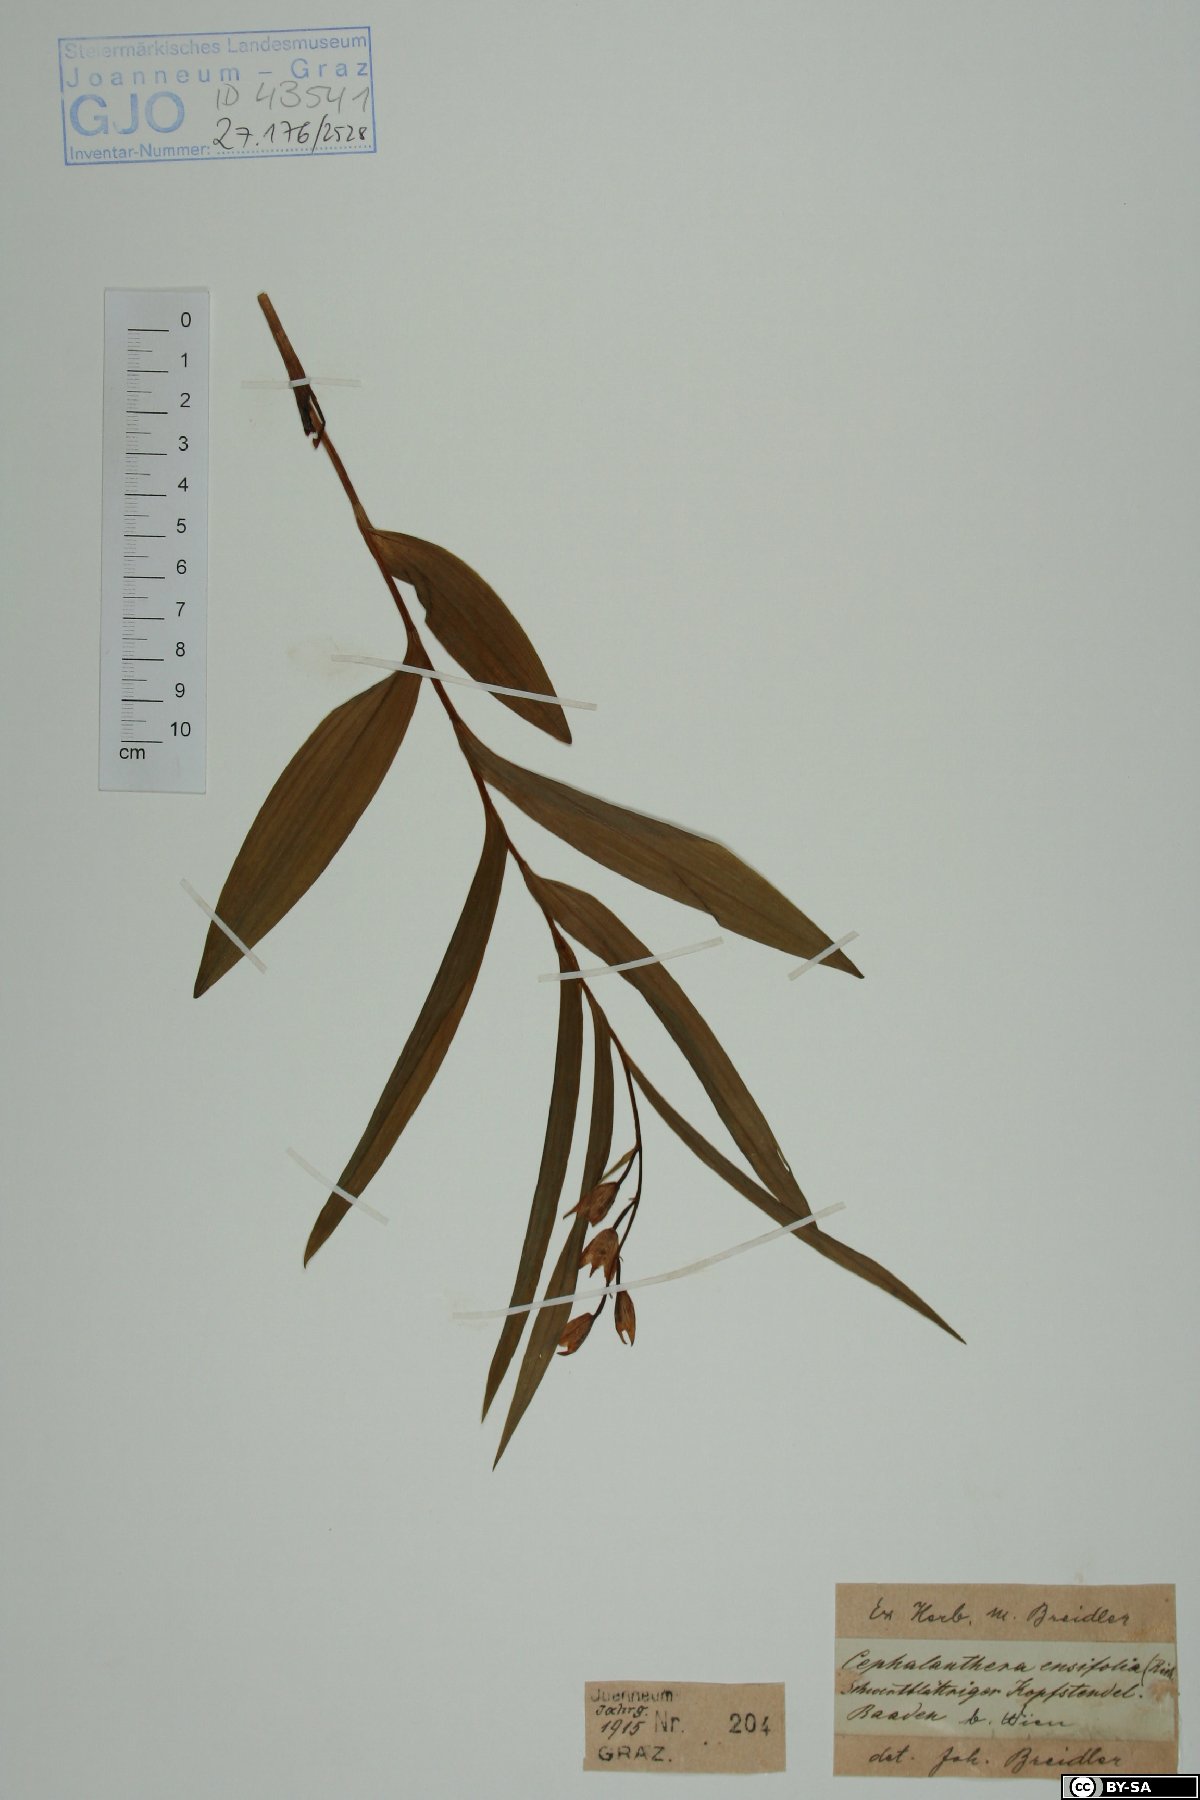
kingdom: Plantae
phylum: Tracheophyta
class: Liliopsida
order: Asparagales
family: Orchidaceae
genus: Cephalanthera
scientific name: Cephalanthera longifolia
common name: Narrow-leaved helleborine
